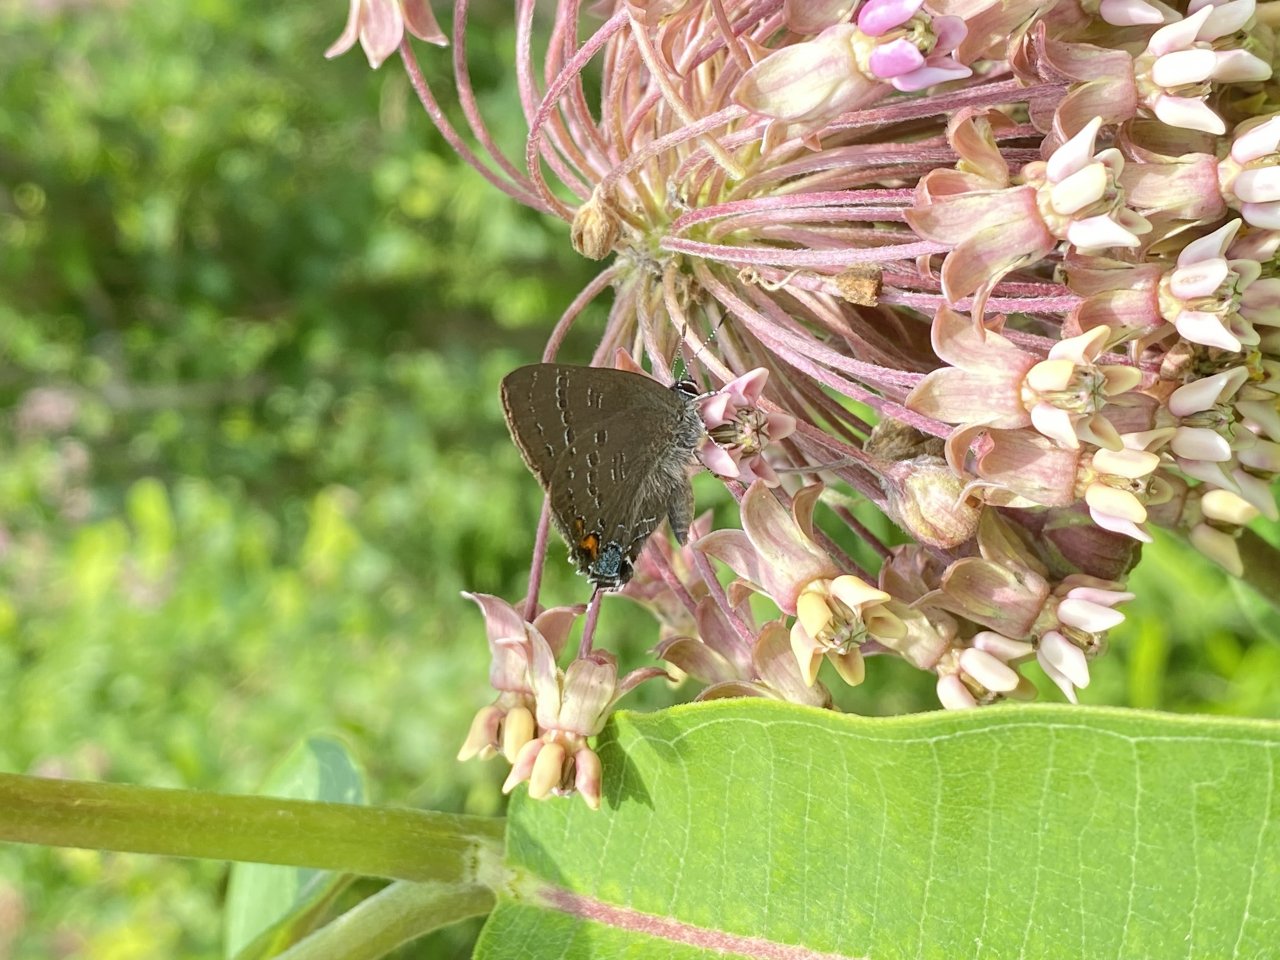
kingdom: Animalia
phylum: Arthropoda
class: Insecta
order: Lepidoptera
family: Lycaenidae
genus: Satyrium
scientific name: Satyrium calanus
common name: Banded Hairstreak
